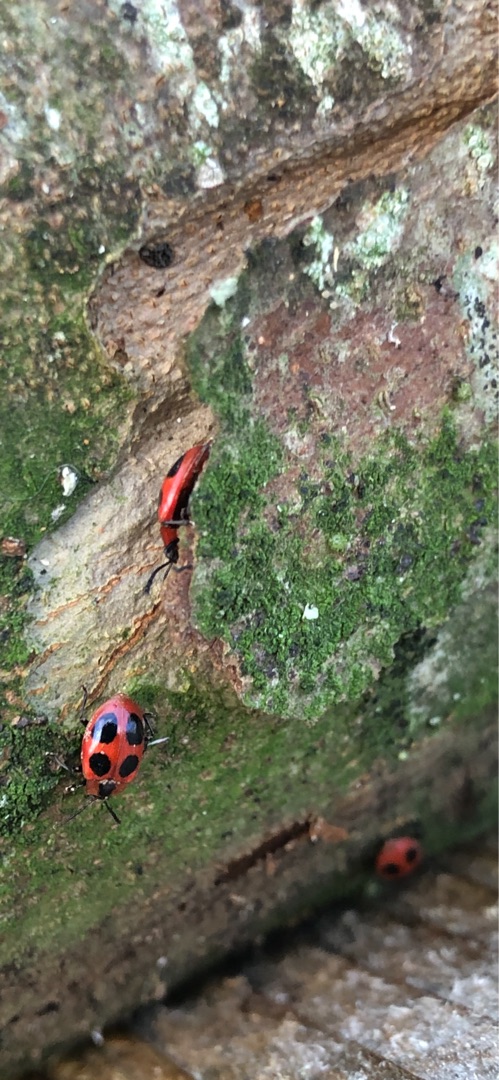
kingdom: Animalia
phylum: Arthropoda
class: Insecta
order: Coleoptera
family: Endomychidae
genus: Endomychus
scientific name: Endomychus coccineus
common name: Skarlagensvampehøne
